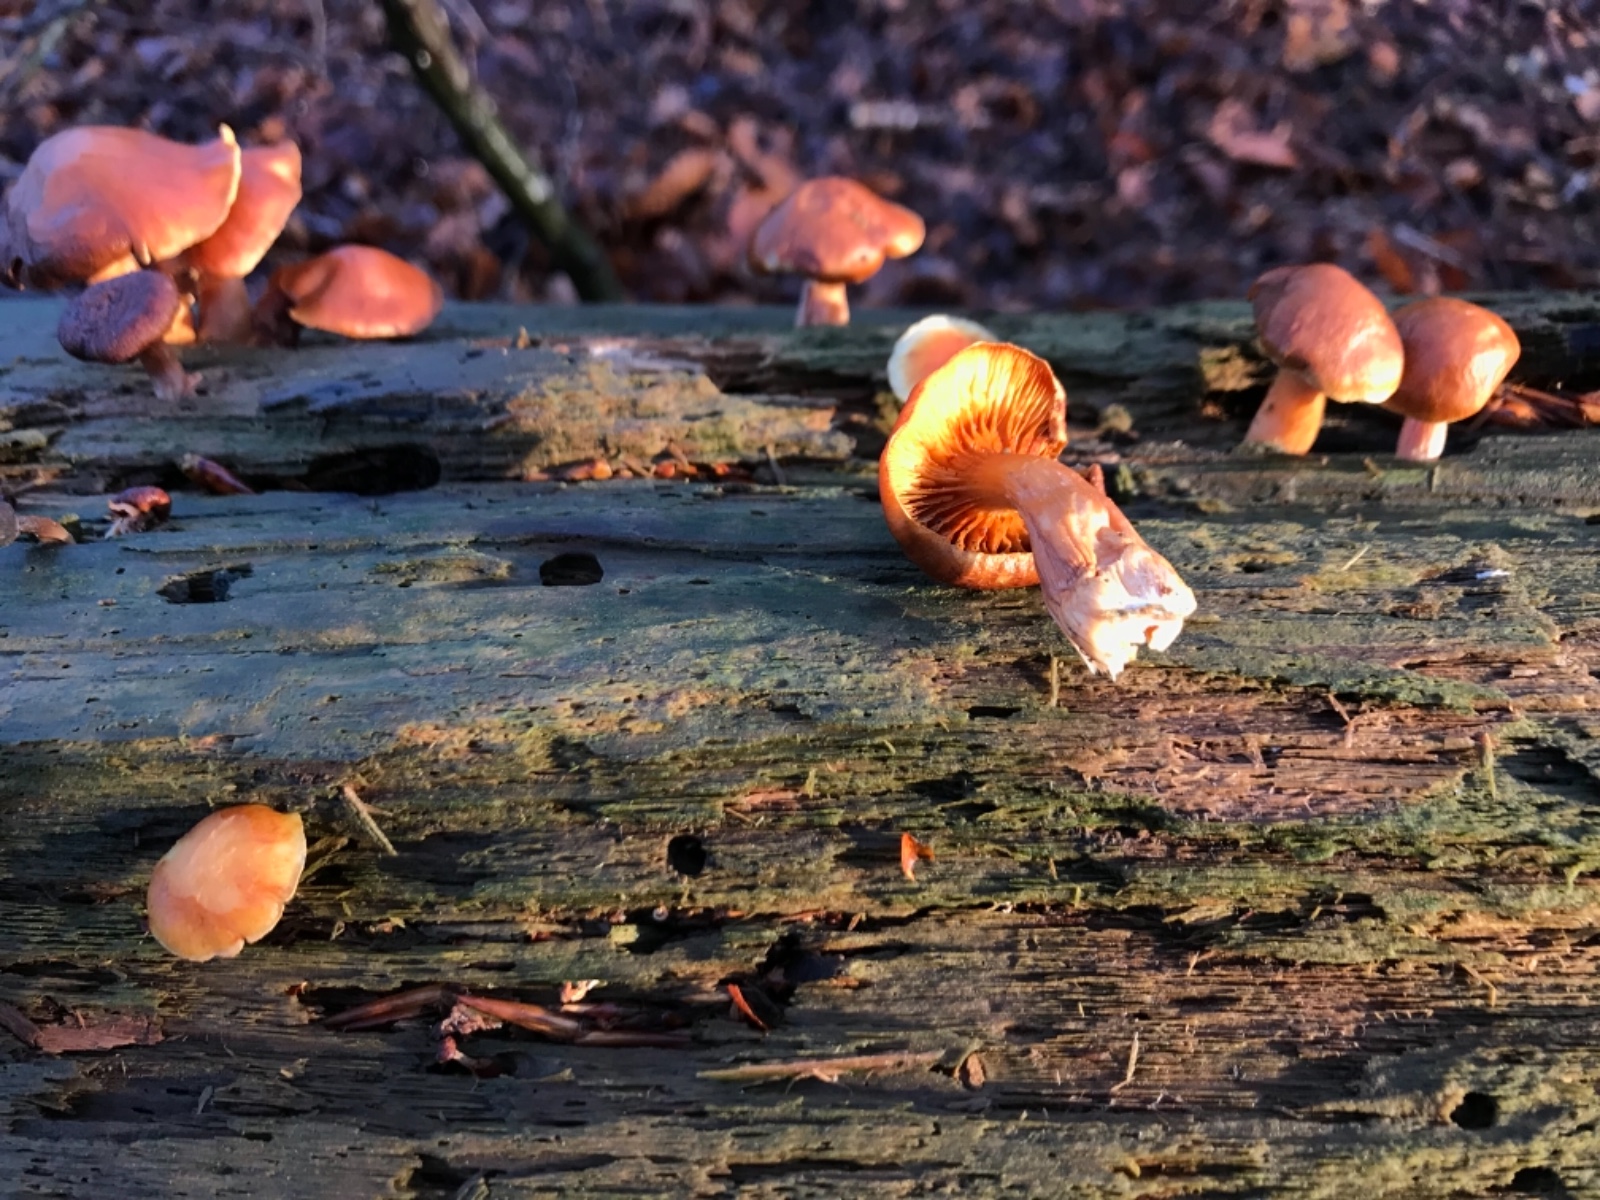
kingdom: Fungi
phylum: Basidiomycota
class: Agaricomycetes
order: Agaricales
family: Hymenogastraceae
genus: Gymnopilus
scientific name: Gymnopilus penetrans
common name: plettet flammehat
